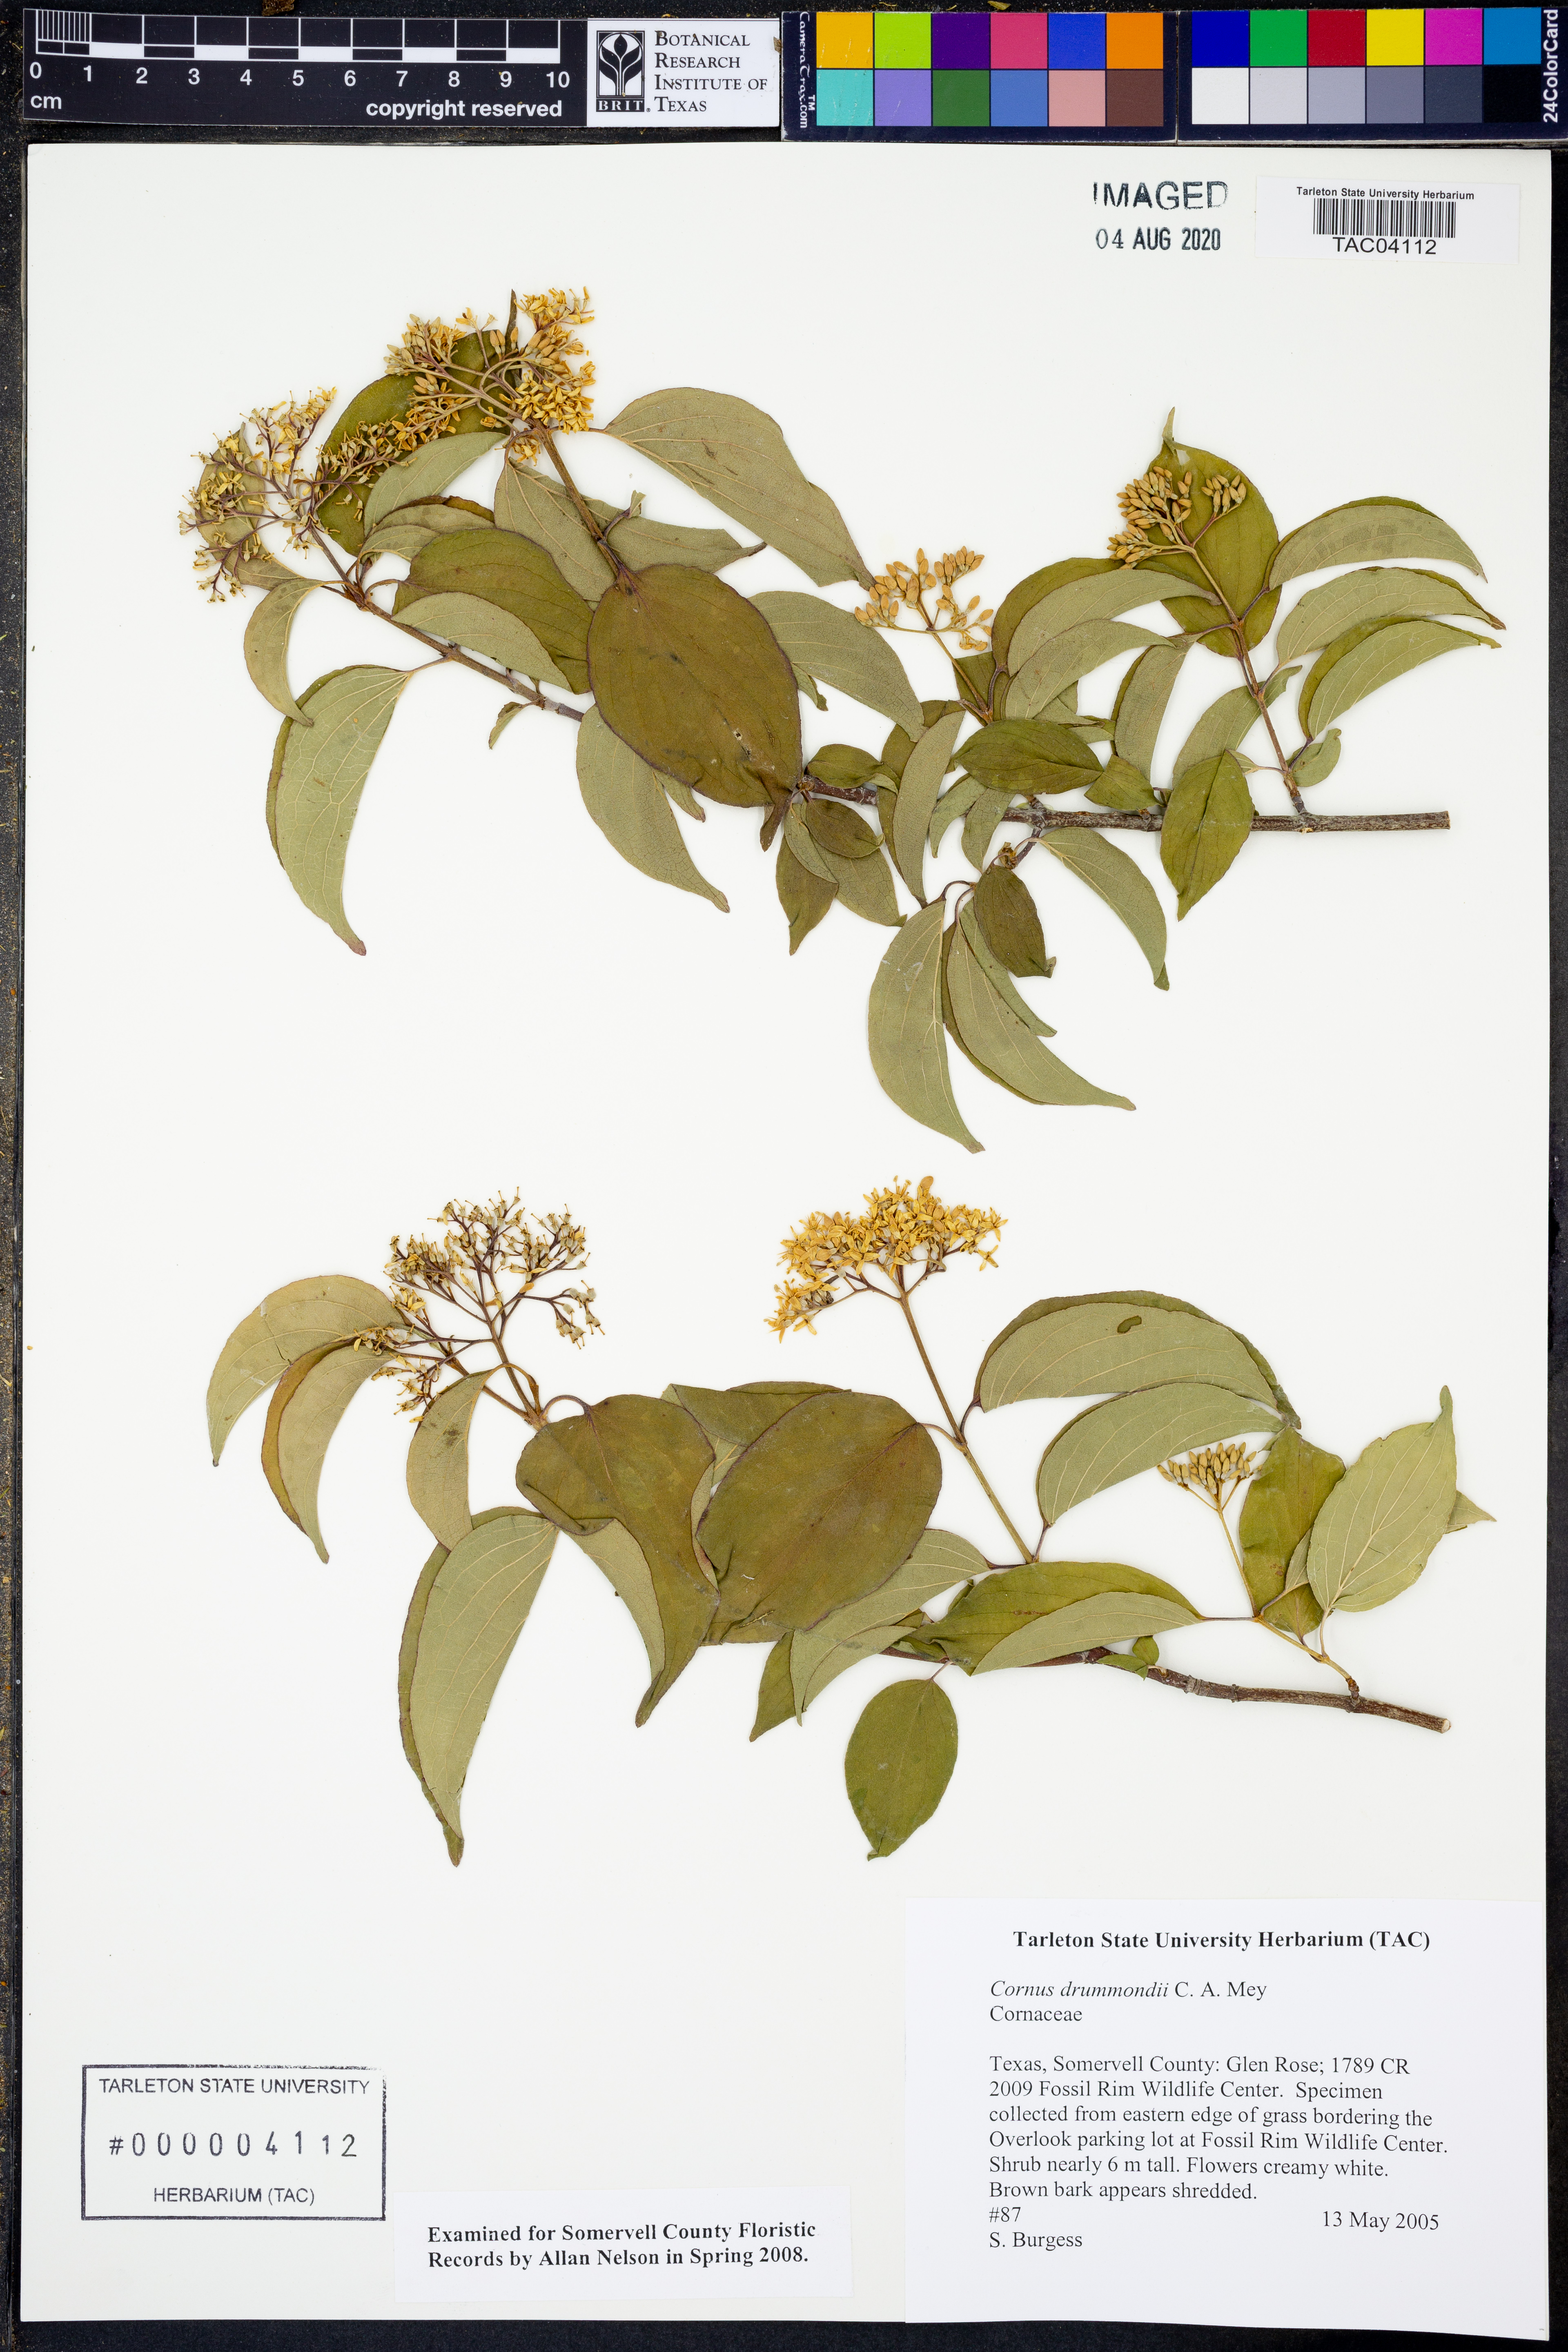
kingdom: Plantae
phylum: Tracheophyta
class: Magnoliopsida
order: Cornales
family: Cornaceae
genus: Cornus
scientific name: Cornus drummondii
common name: Rough-leaf dogwood
